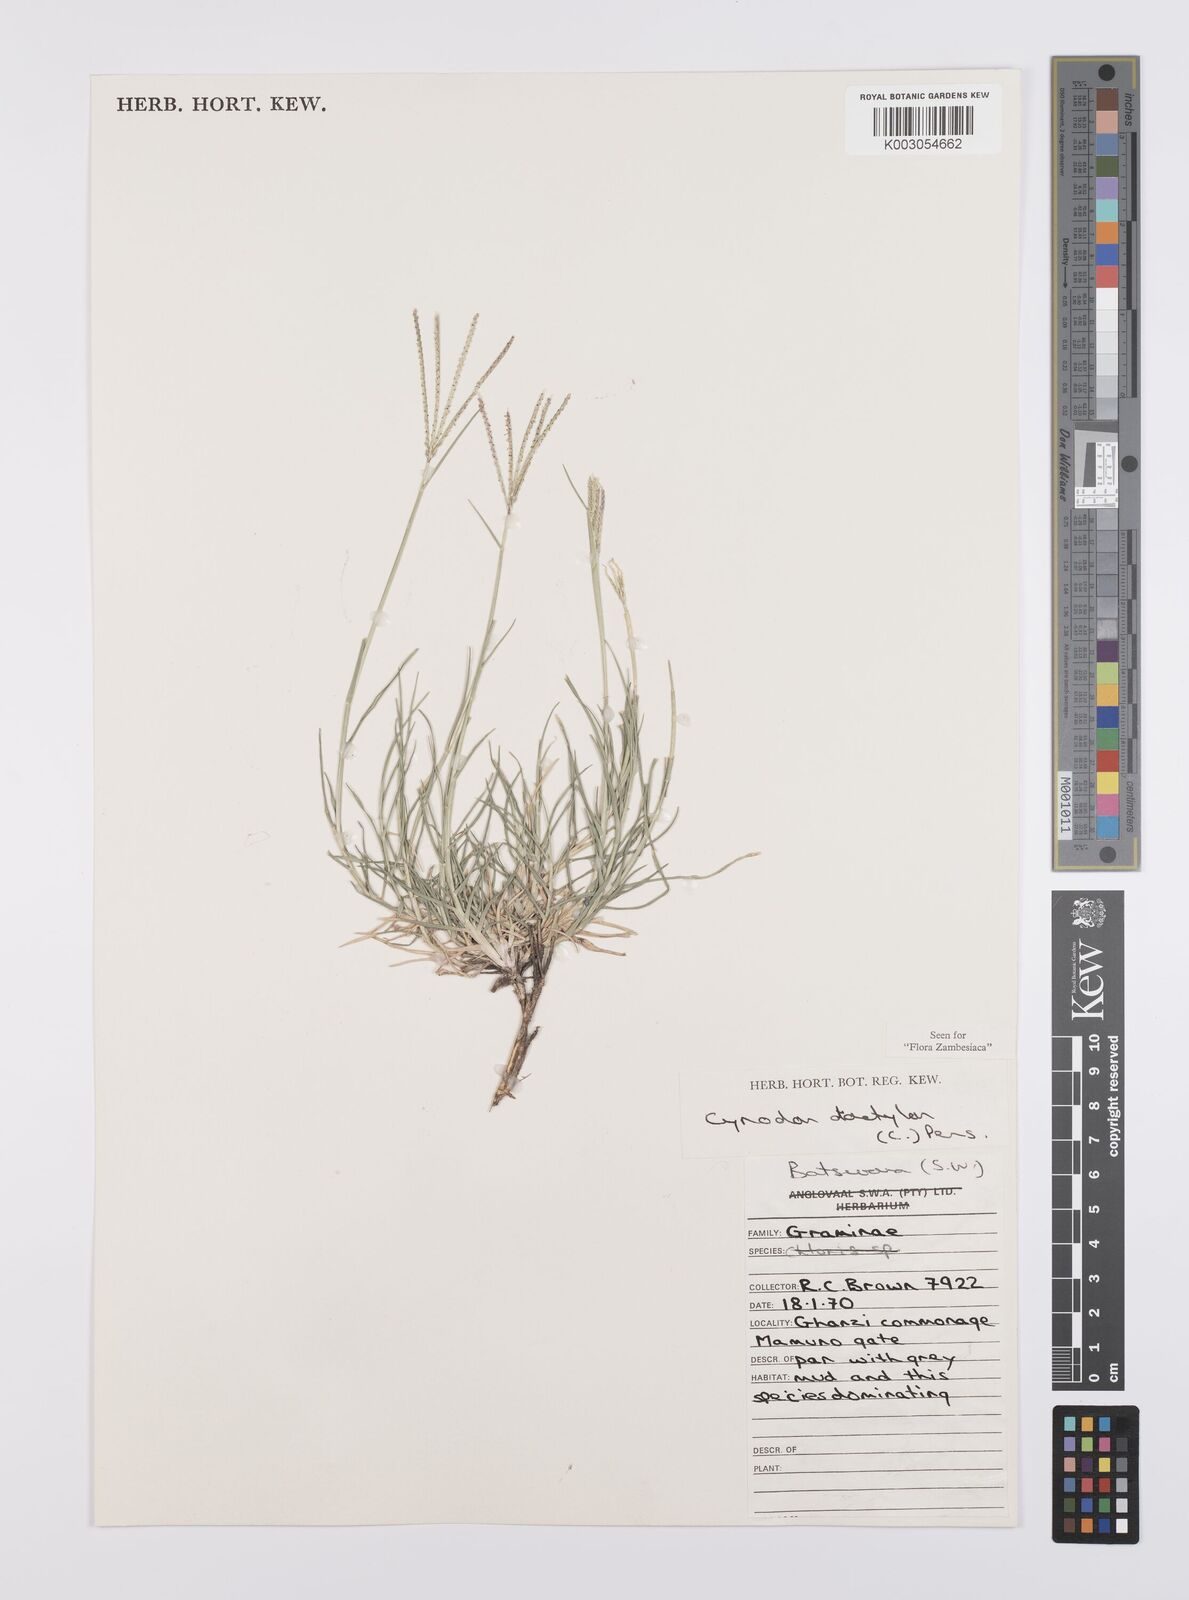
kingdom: Plantae
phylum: Tracheophyta
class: Liliopsida
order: Poales
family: Poaceae
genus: Cynodon
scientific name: Cynodon dactylon
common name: Bermuda grass
